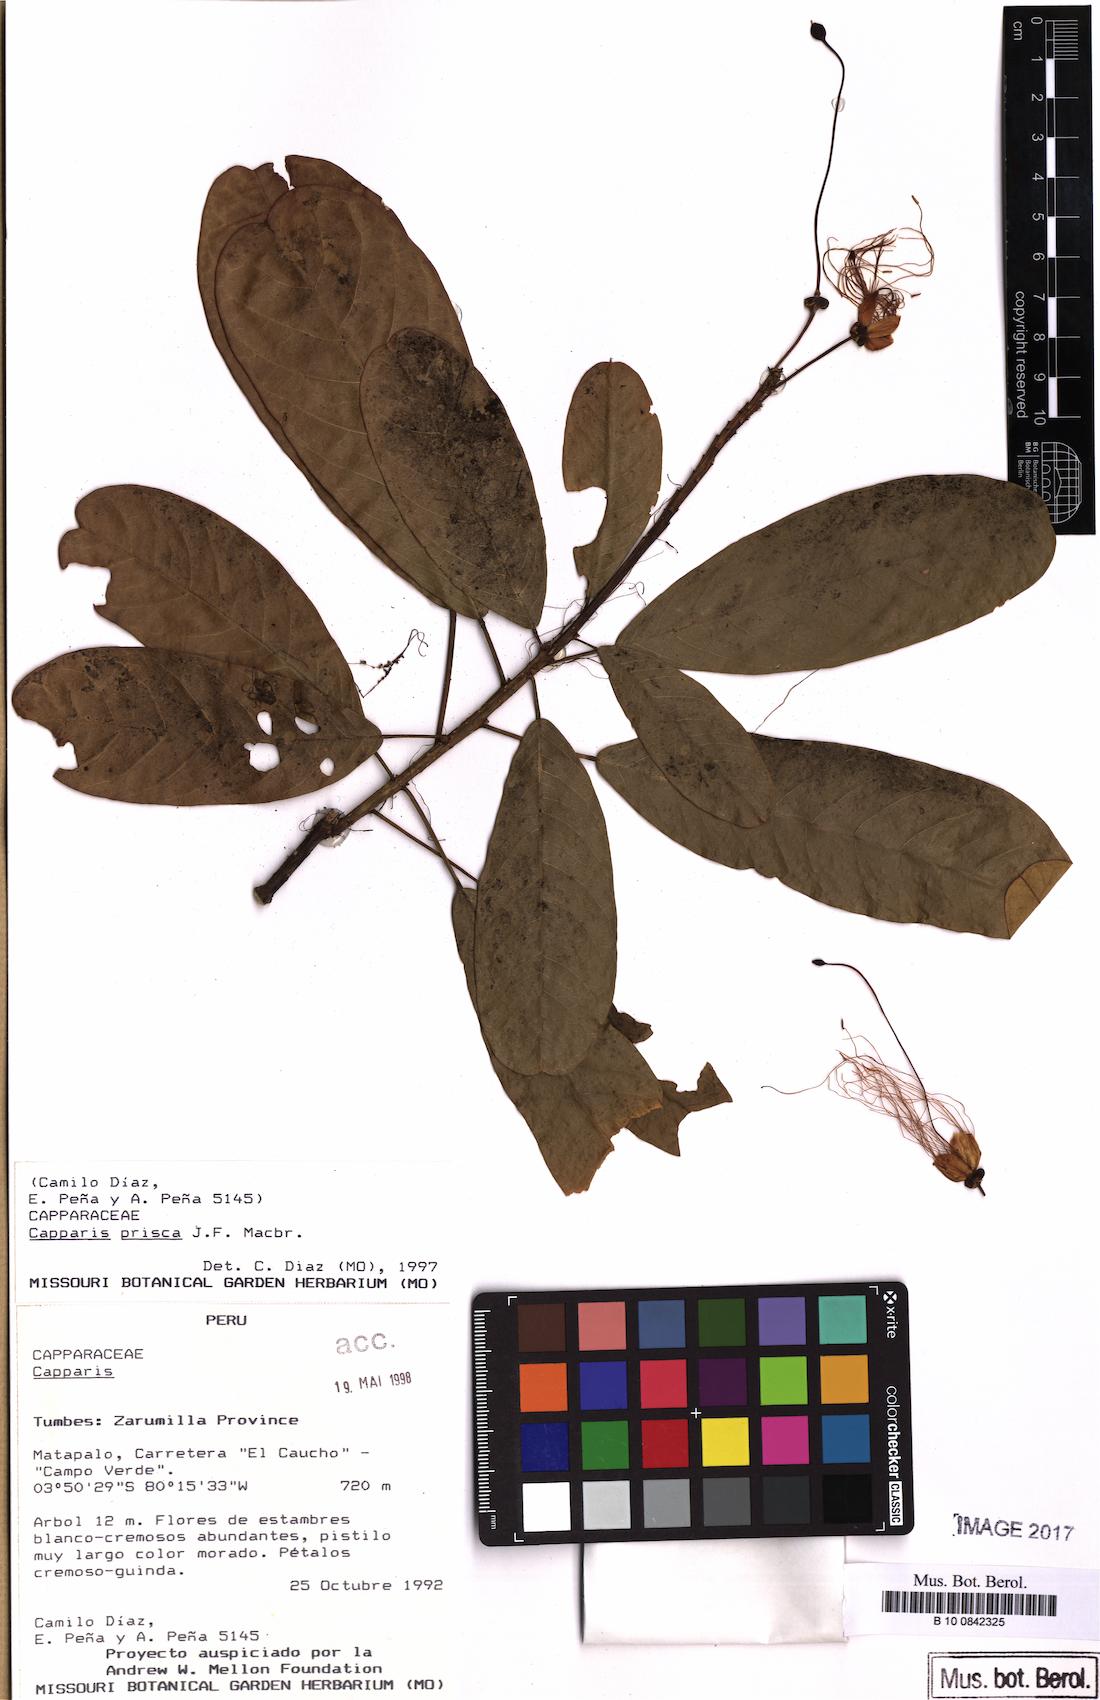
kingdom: Plantae
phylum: Tracheophyta
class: Magnoliopsida
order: Brassicales
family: Capparaceae
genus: Capparidastrum
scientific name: Capparidastrum petiolare
